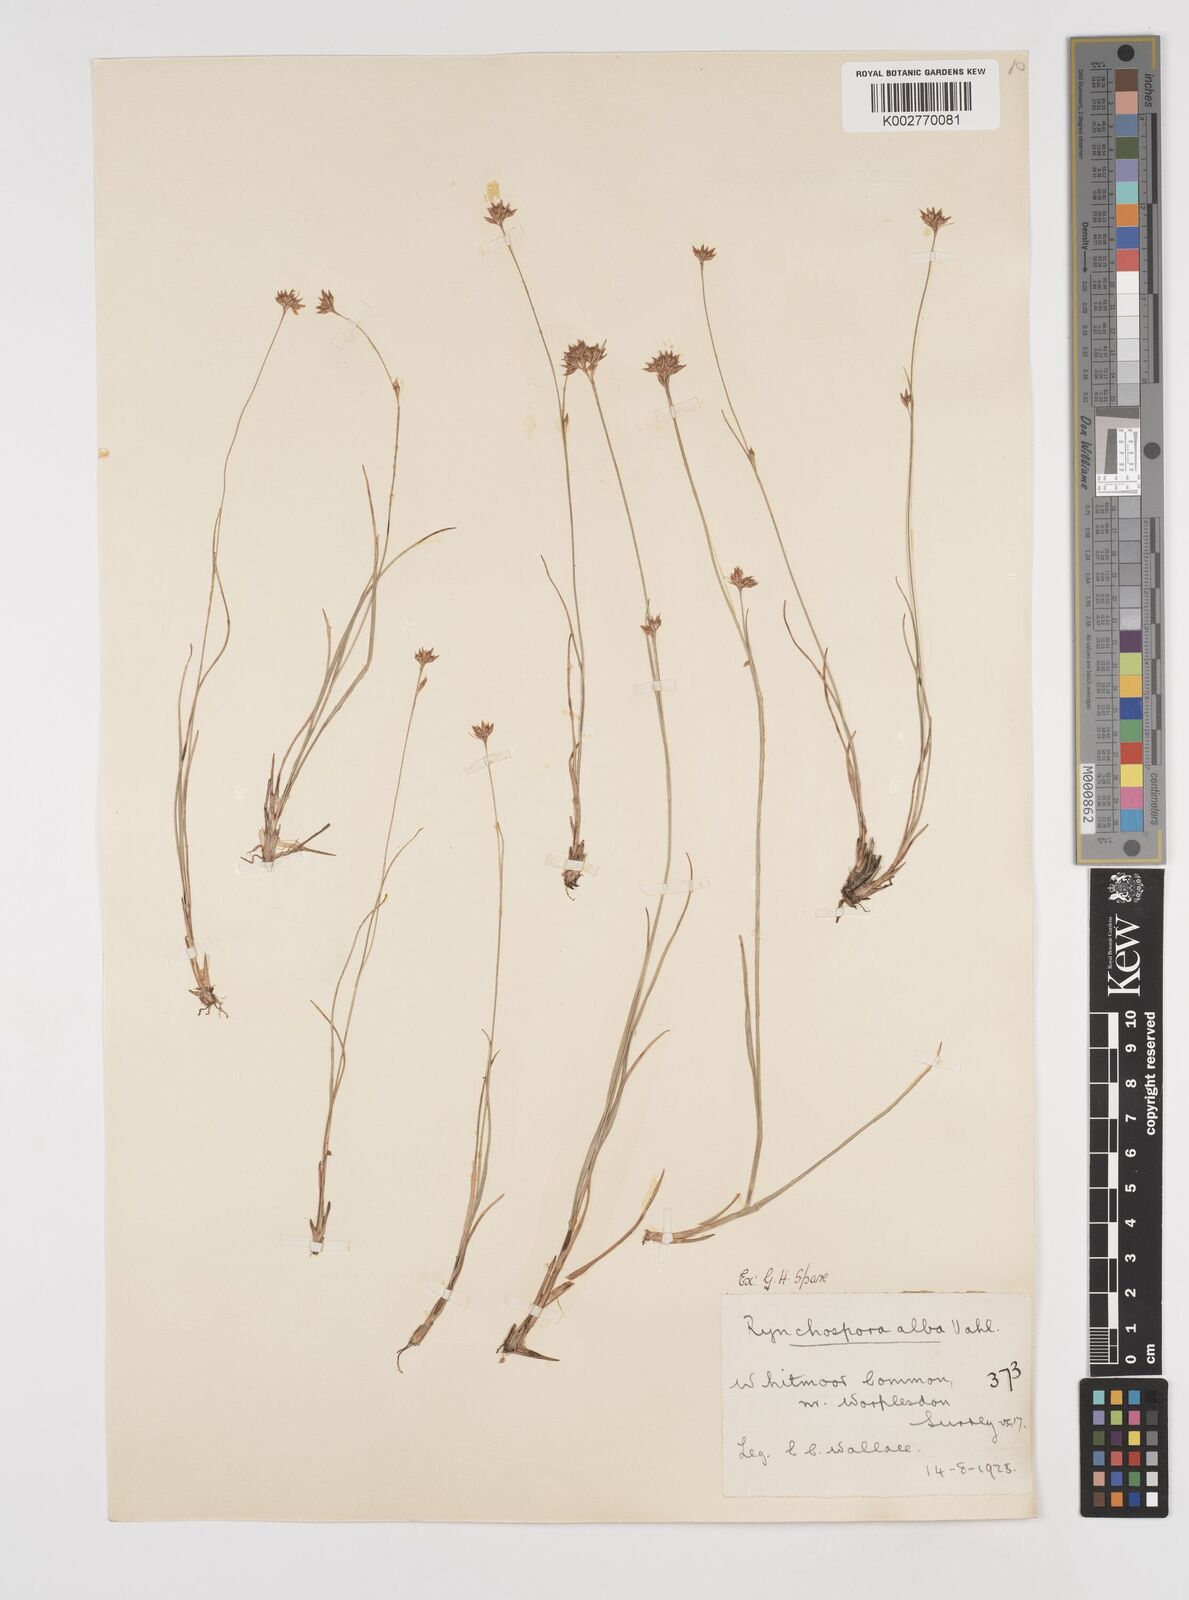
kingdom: Plantae
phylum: Tracheophyta
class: Liliopsida
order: Poales
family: Cyperaceae
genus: Rhynchospora
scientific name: Rhynchospora alba
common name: White beak-sedge
